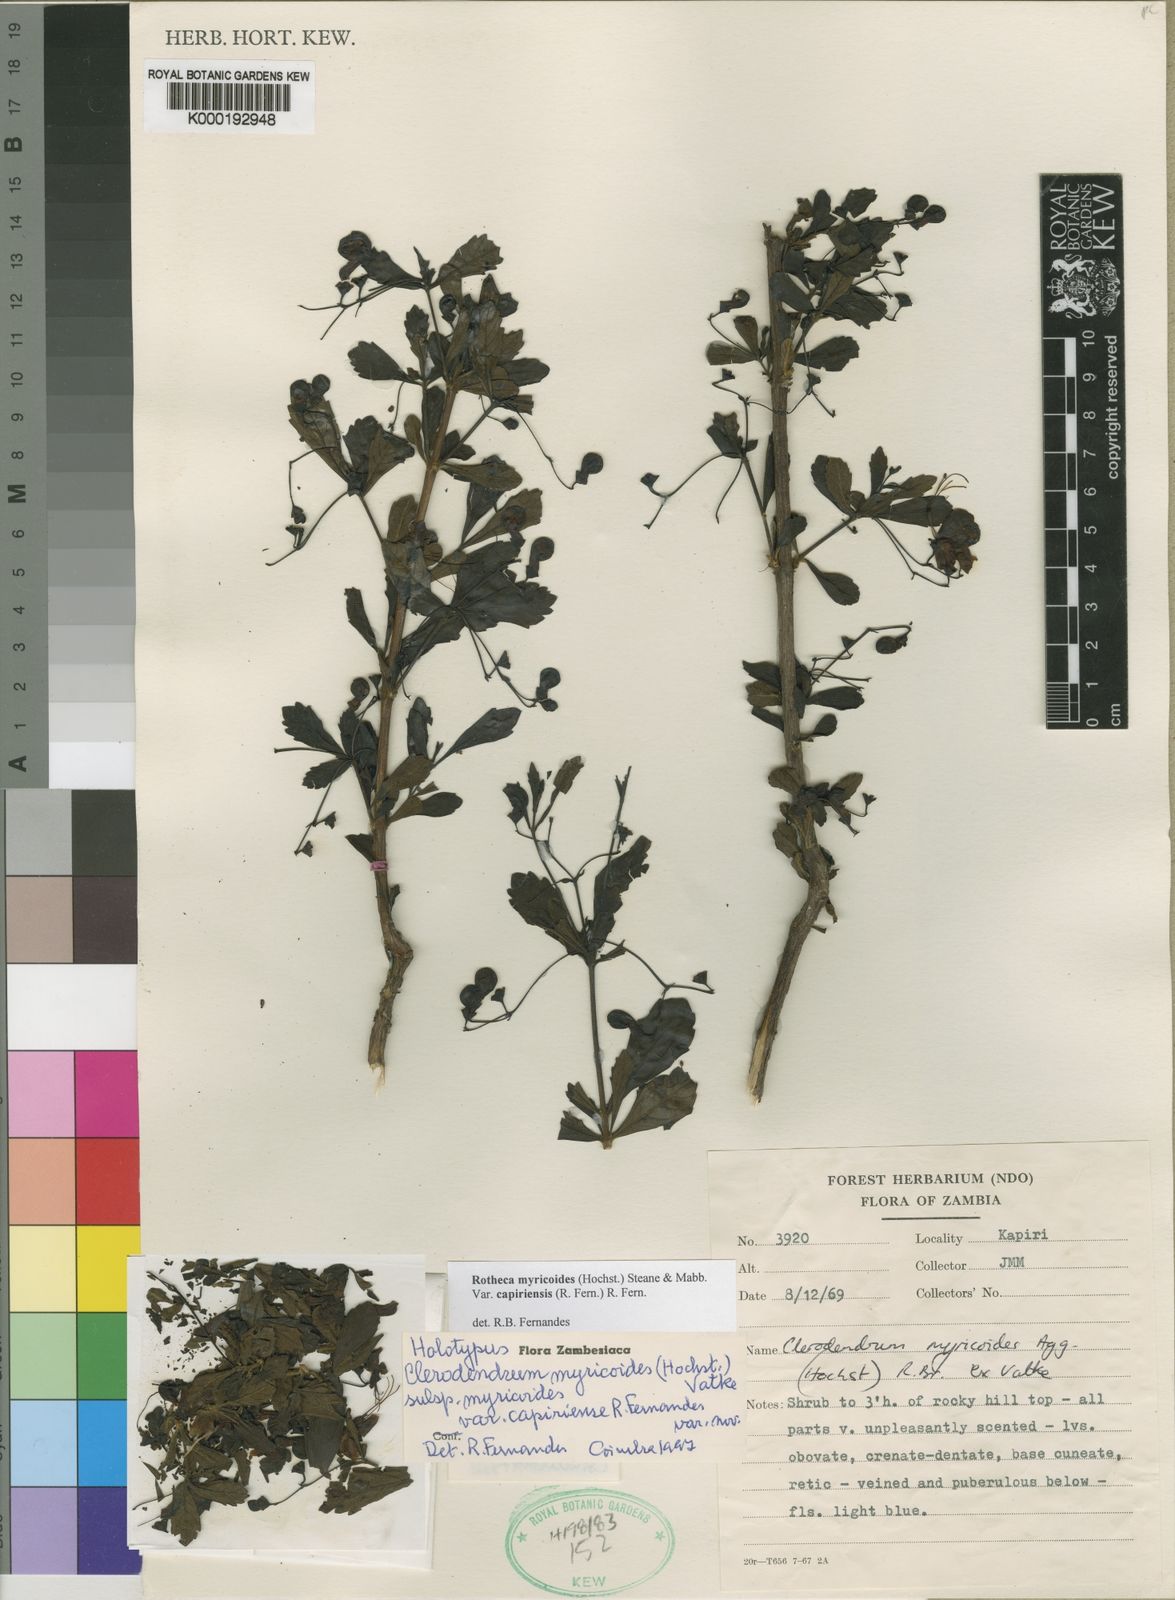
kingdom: Plantae
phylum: Tracheophyta
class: Magnoliopsida
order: Lamiales
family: Lamiaceae
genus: Rotheca
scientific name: Rotheca myricoides
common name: Cats-whiskers
